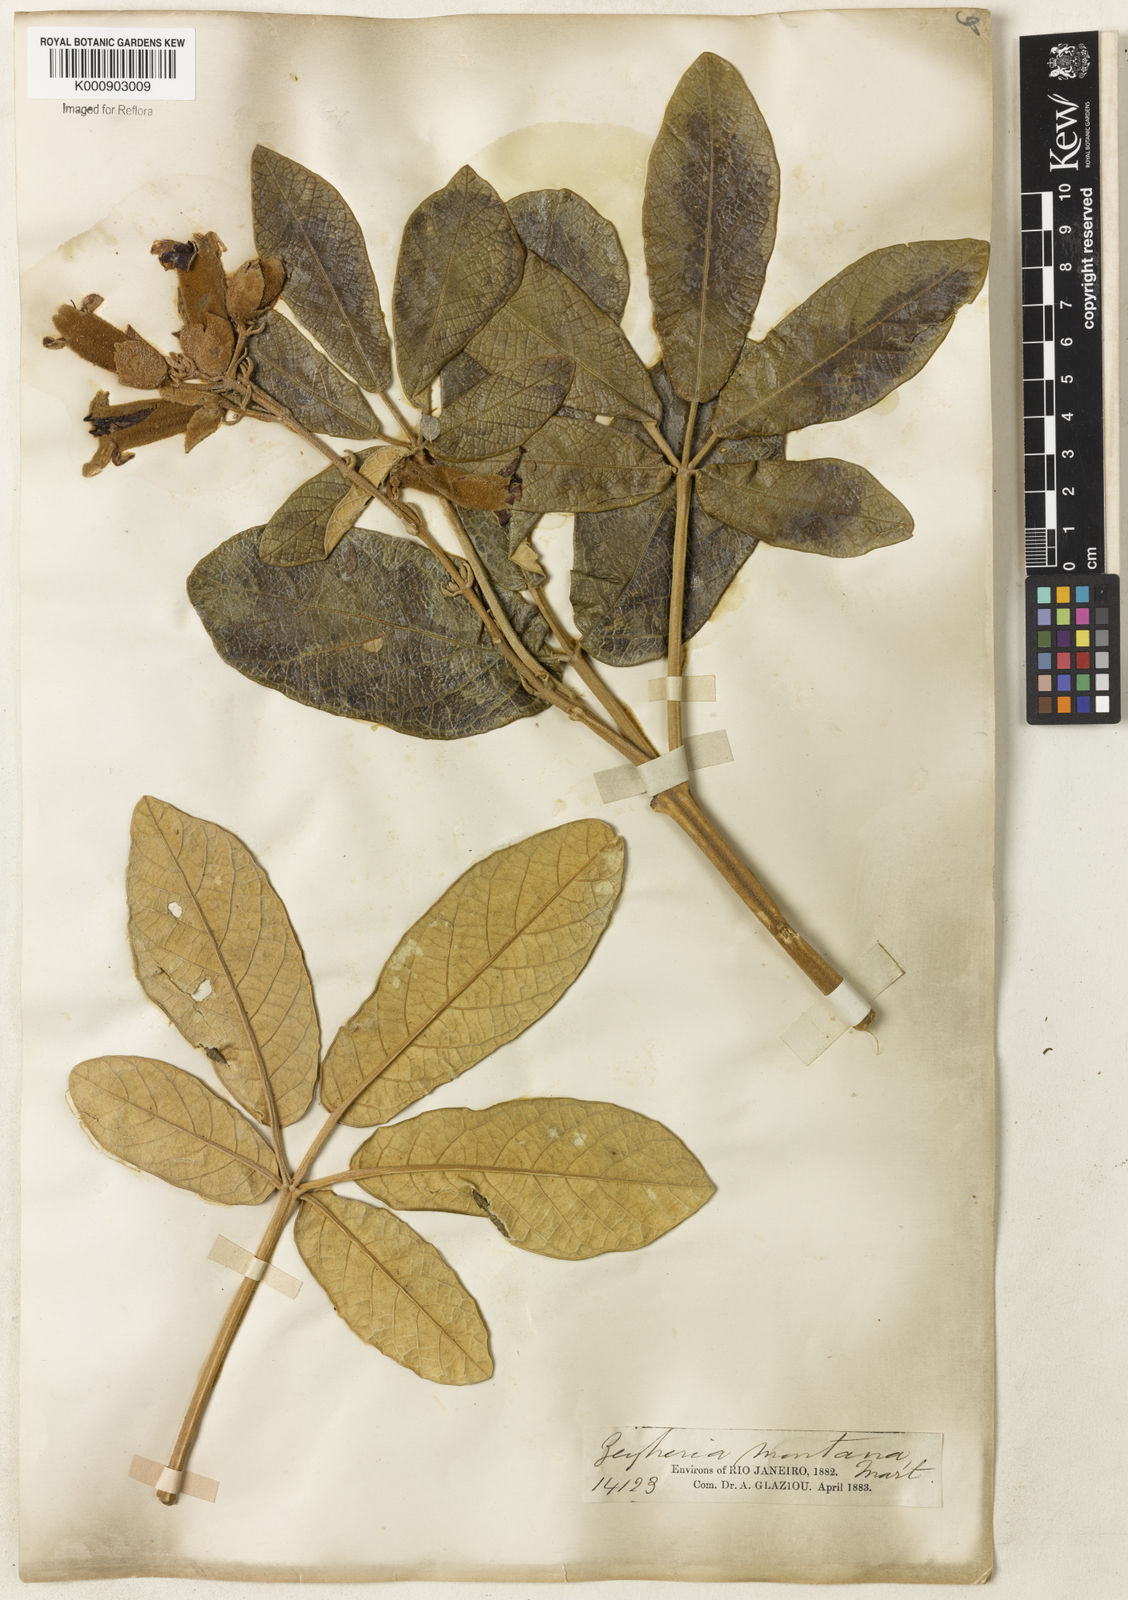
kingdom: Plantae
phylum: Tracheophyta
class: Magnoliopsida
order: Lamiales
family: Bignoniaceae
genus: Zeyheria
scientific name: Zeyheria montana
